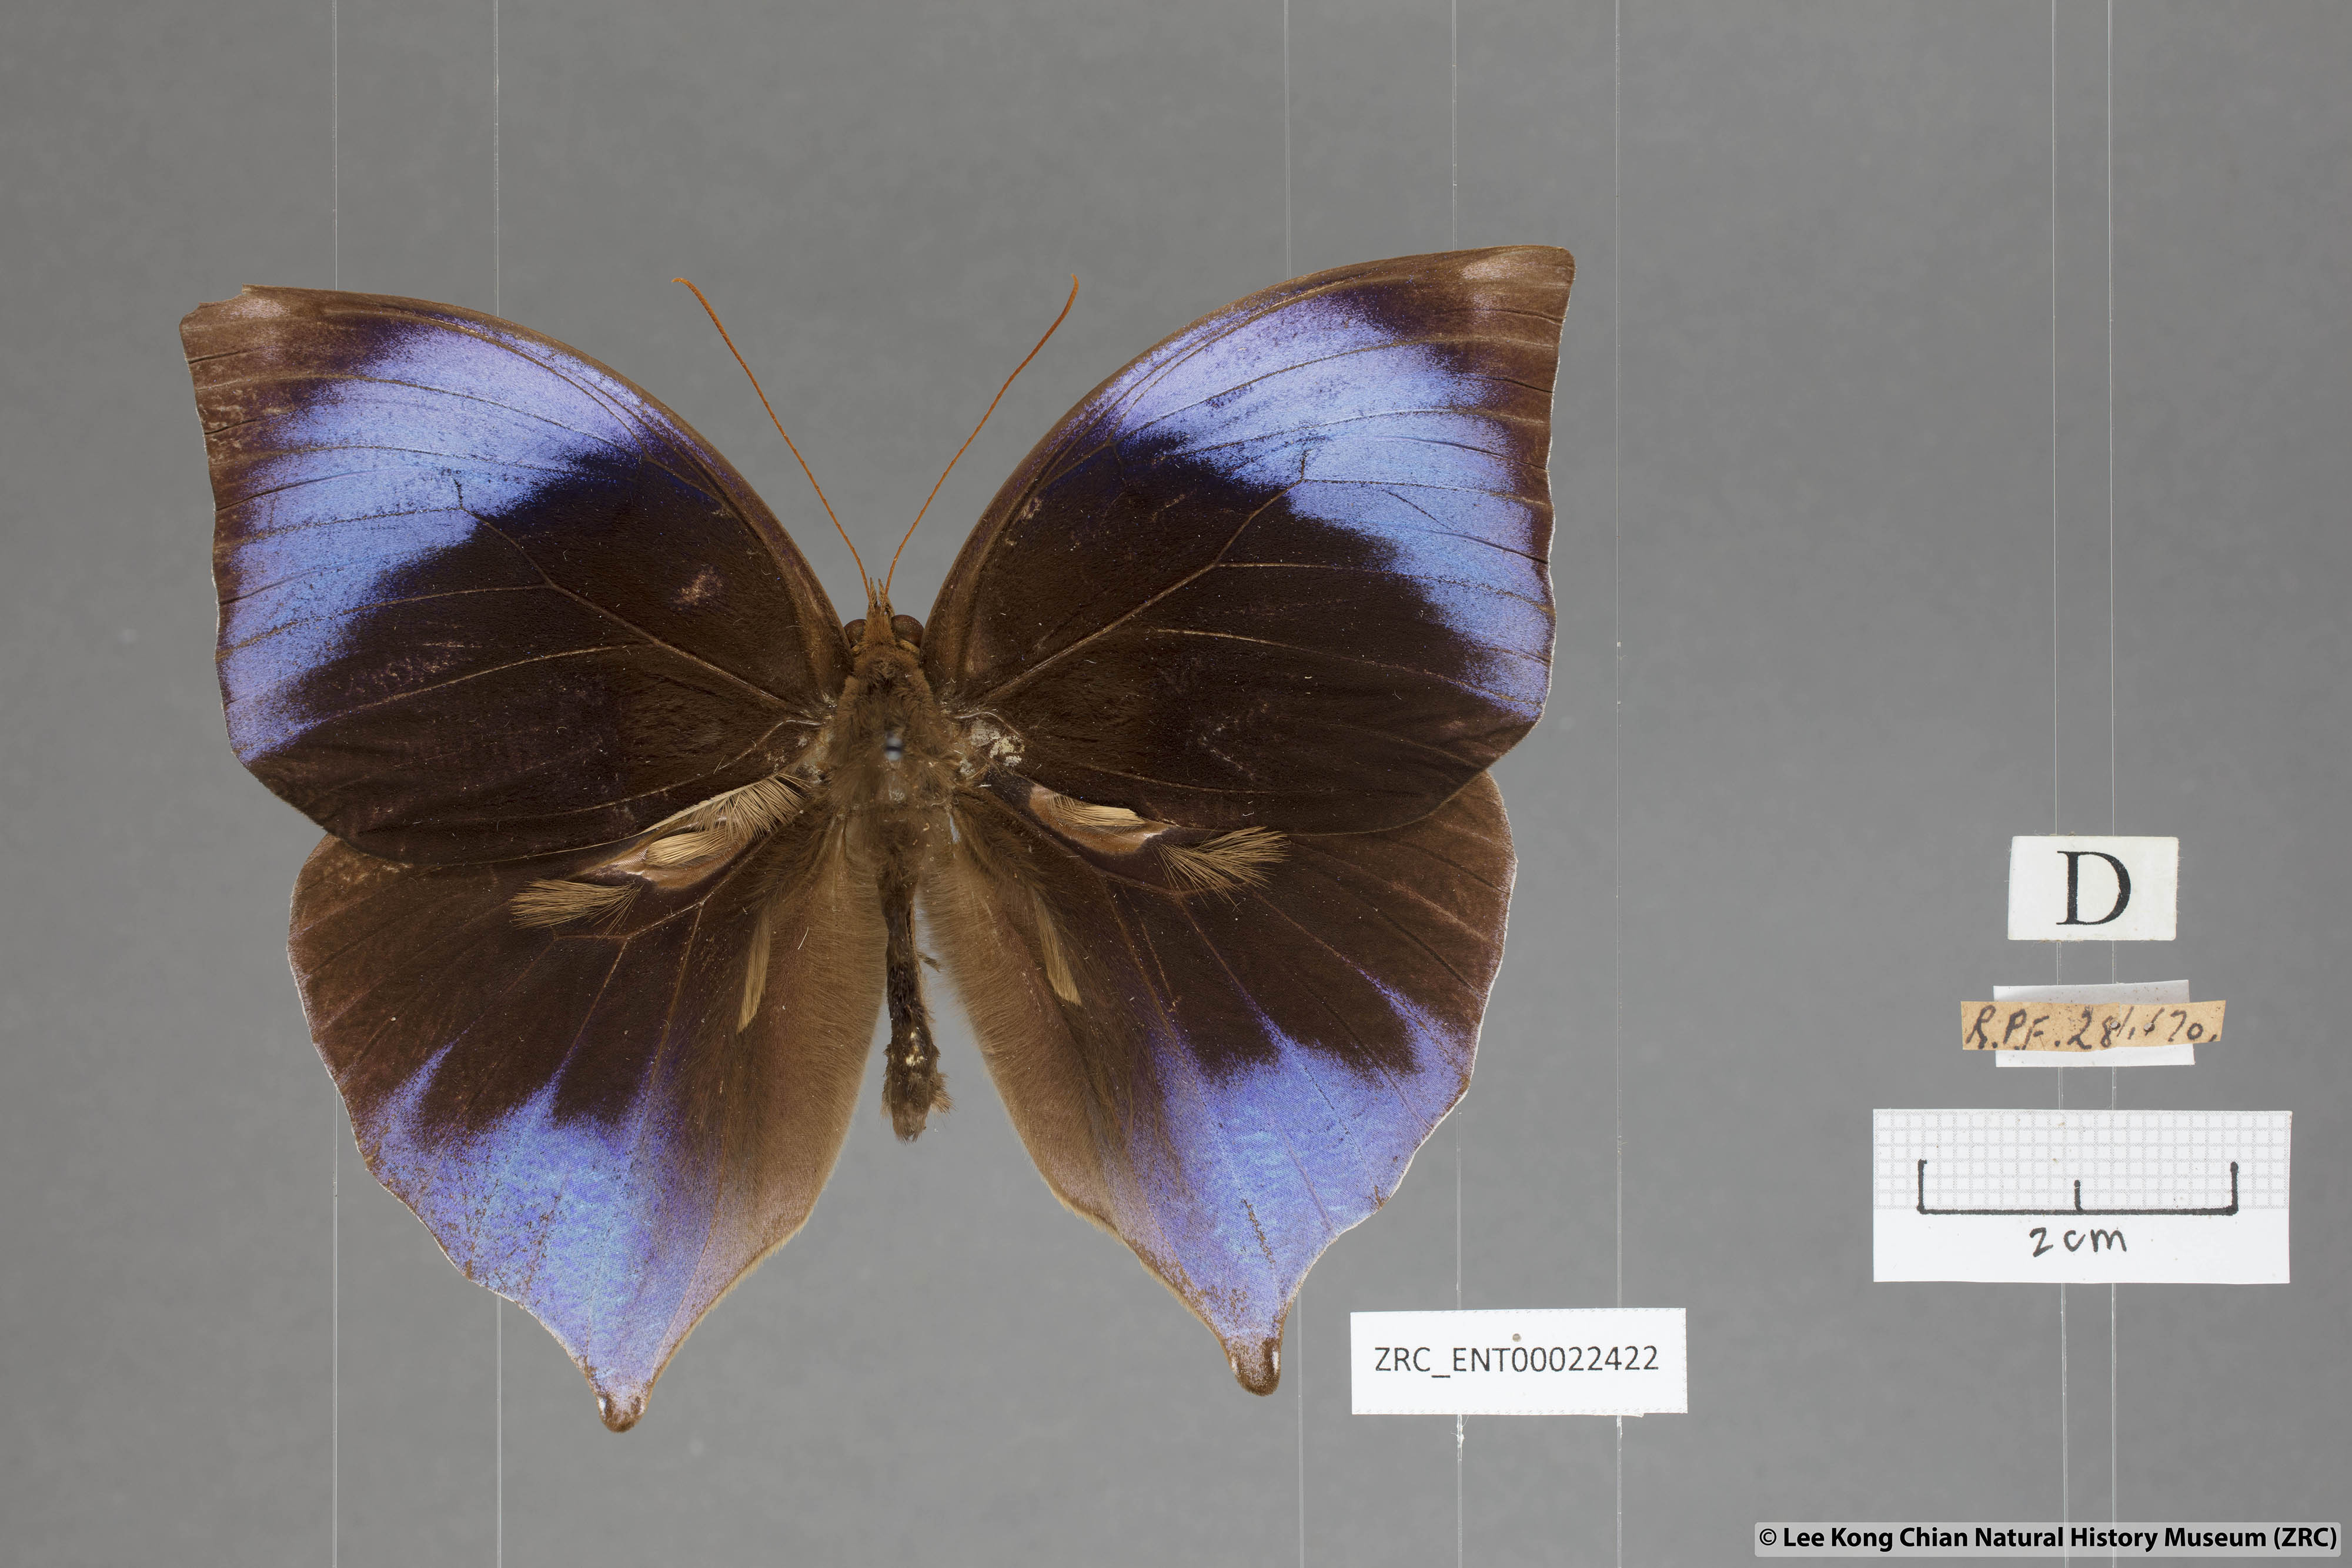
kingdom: Animalia
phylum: Arthropoda
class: Insecta
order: Lepidoptera
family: Nymphalidae
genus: Zeuxidia
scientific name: Zeuxidia ameythystus
